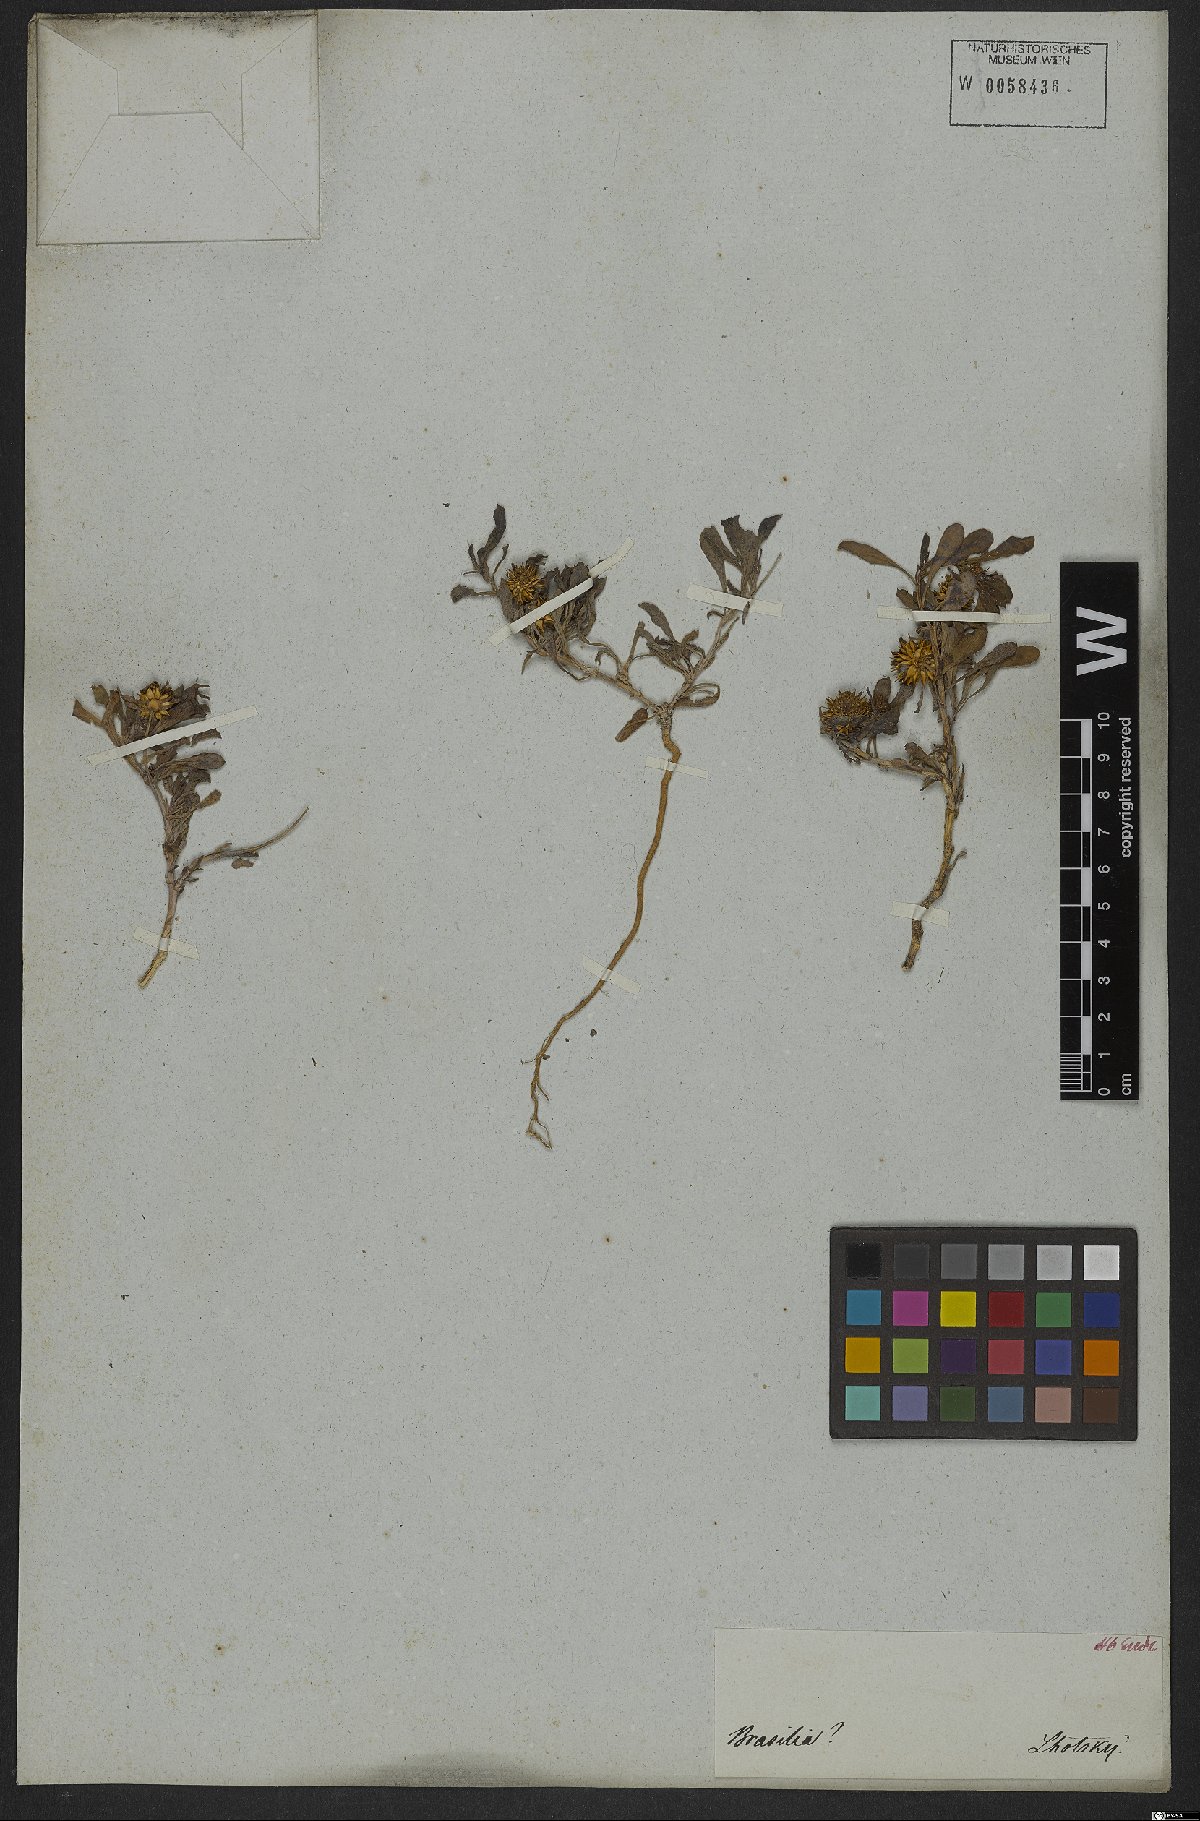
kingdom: Plantae
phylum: Tracheophyta
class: Magnoliopsida
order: Asterales
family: Calyceraceae
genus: Acicarpha
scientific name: Acicarpha spathulata
